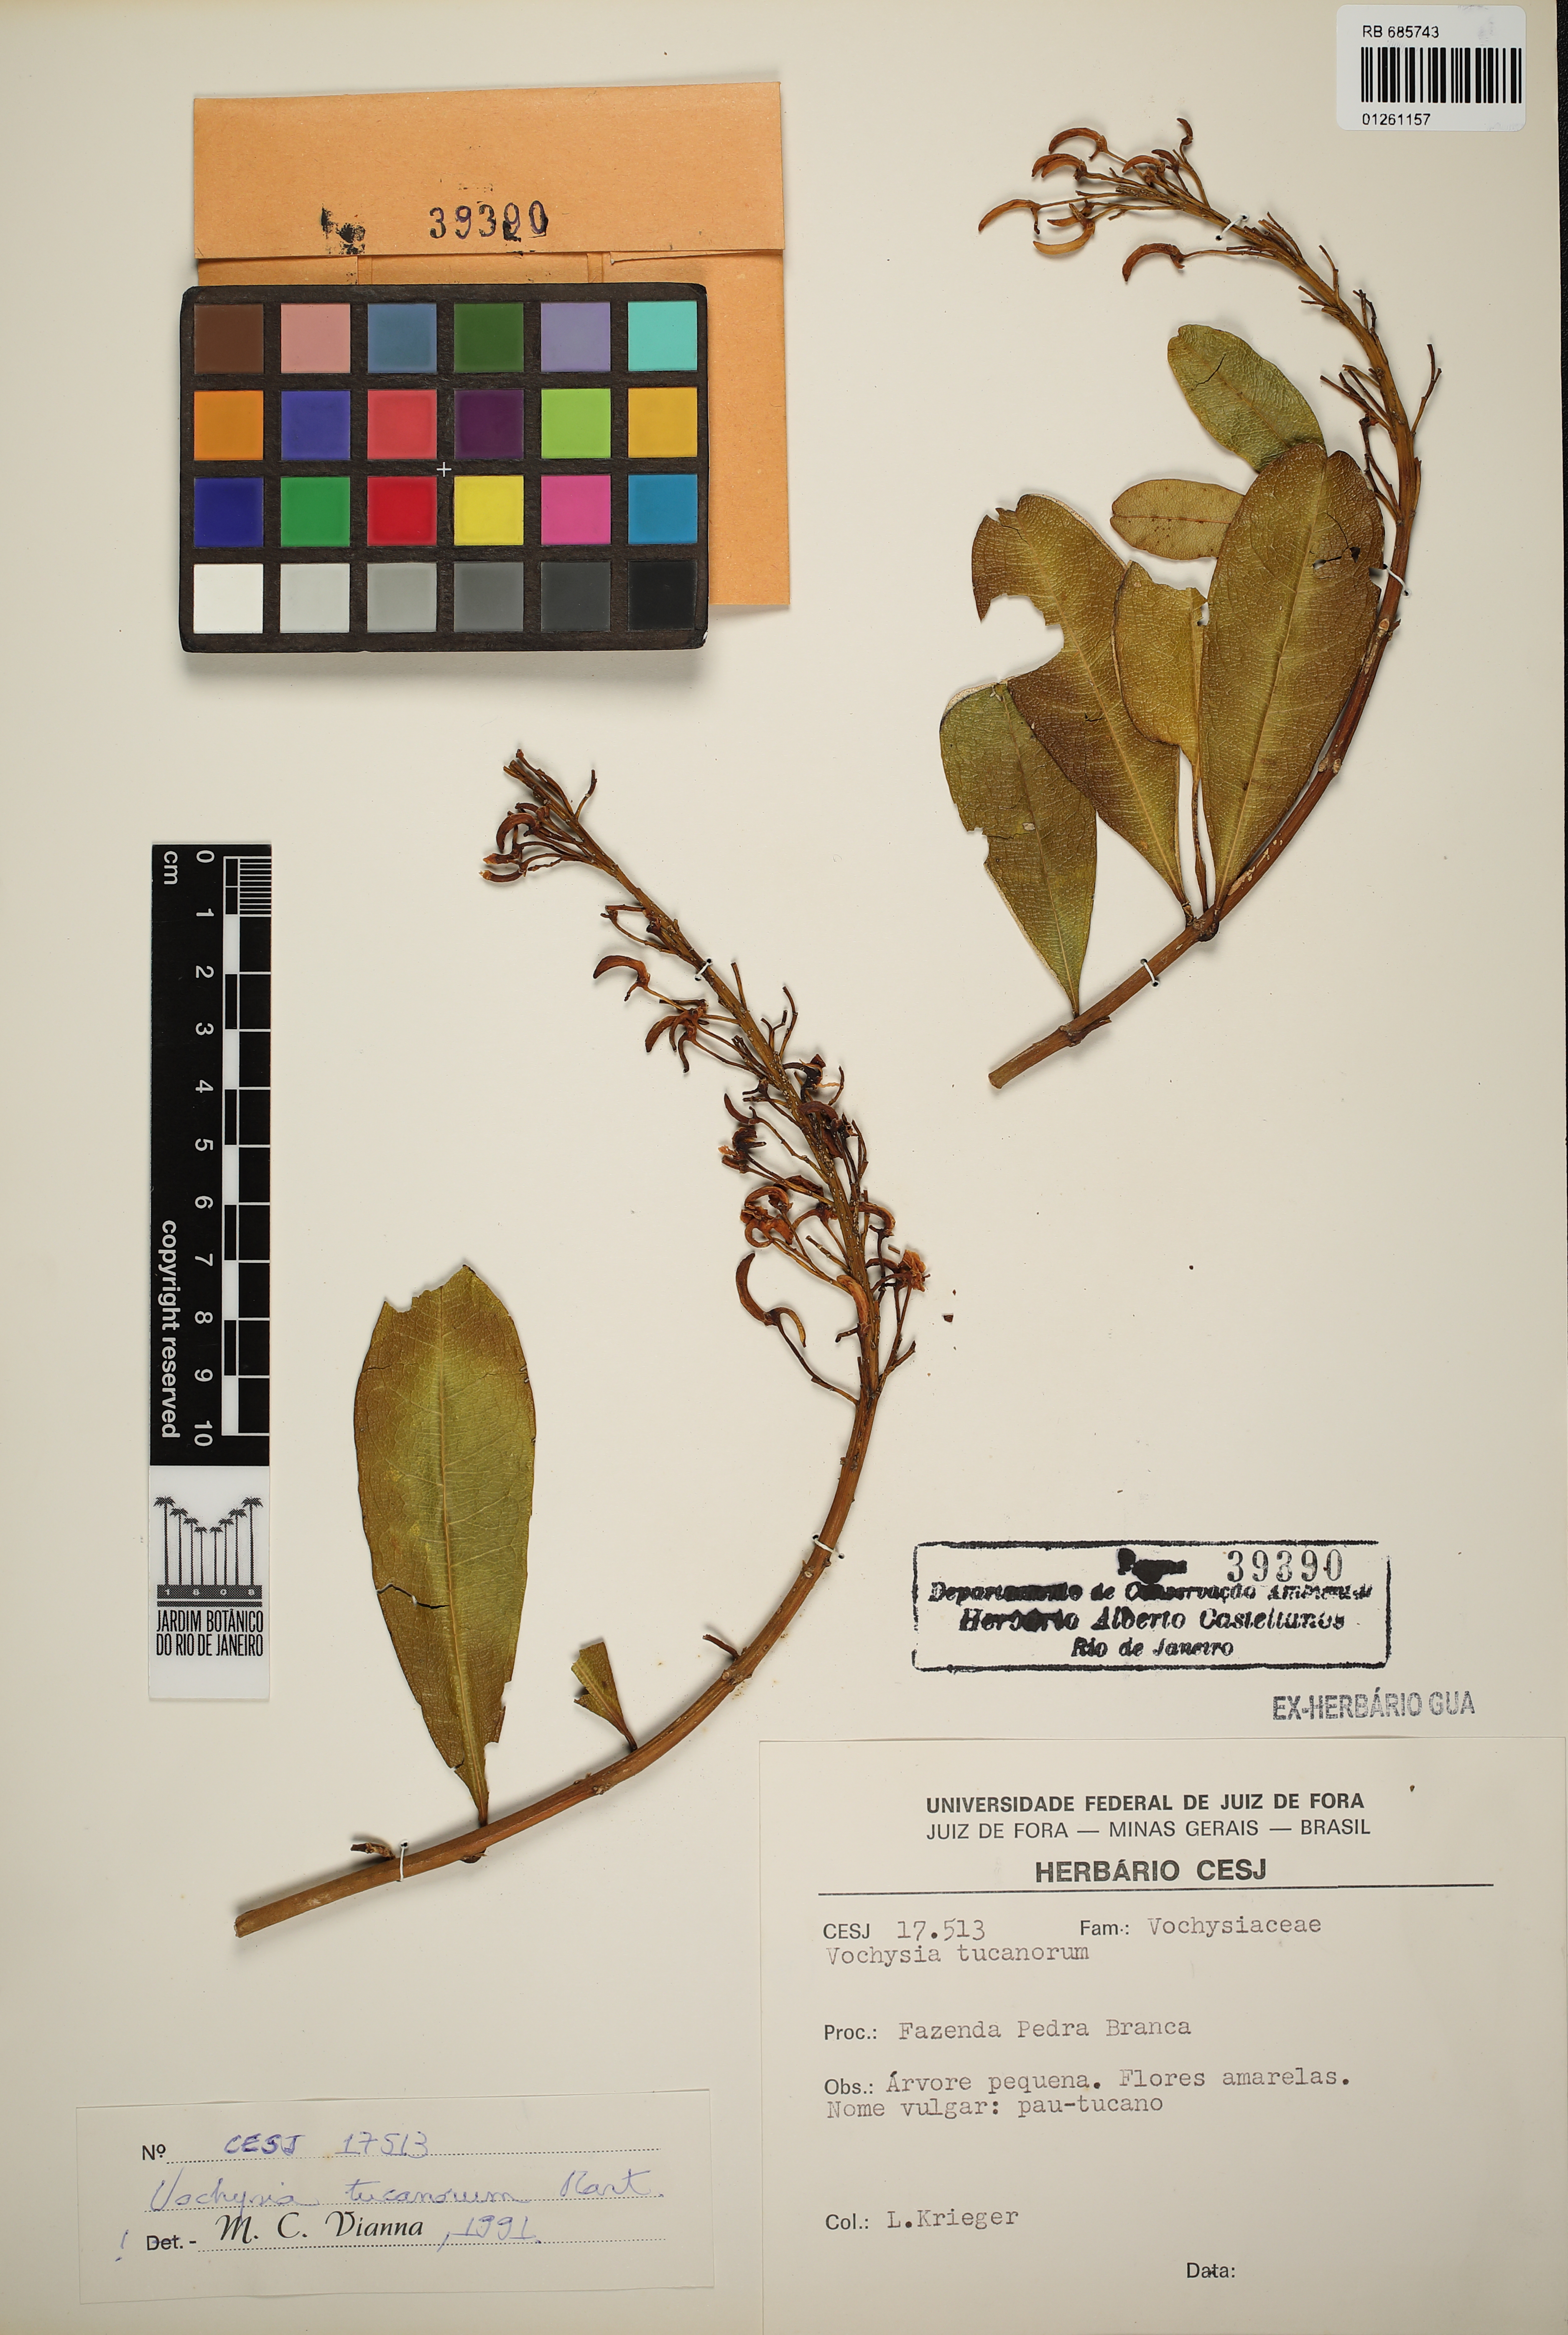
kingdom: Plantae
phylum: Tracheophyta
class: Magnoliopsida
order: Myrtales
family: Vochysiaceae
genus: Vochysia
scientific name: Vochysia tucanorum
